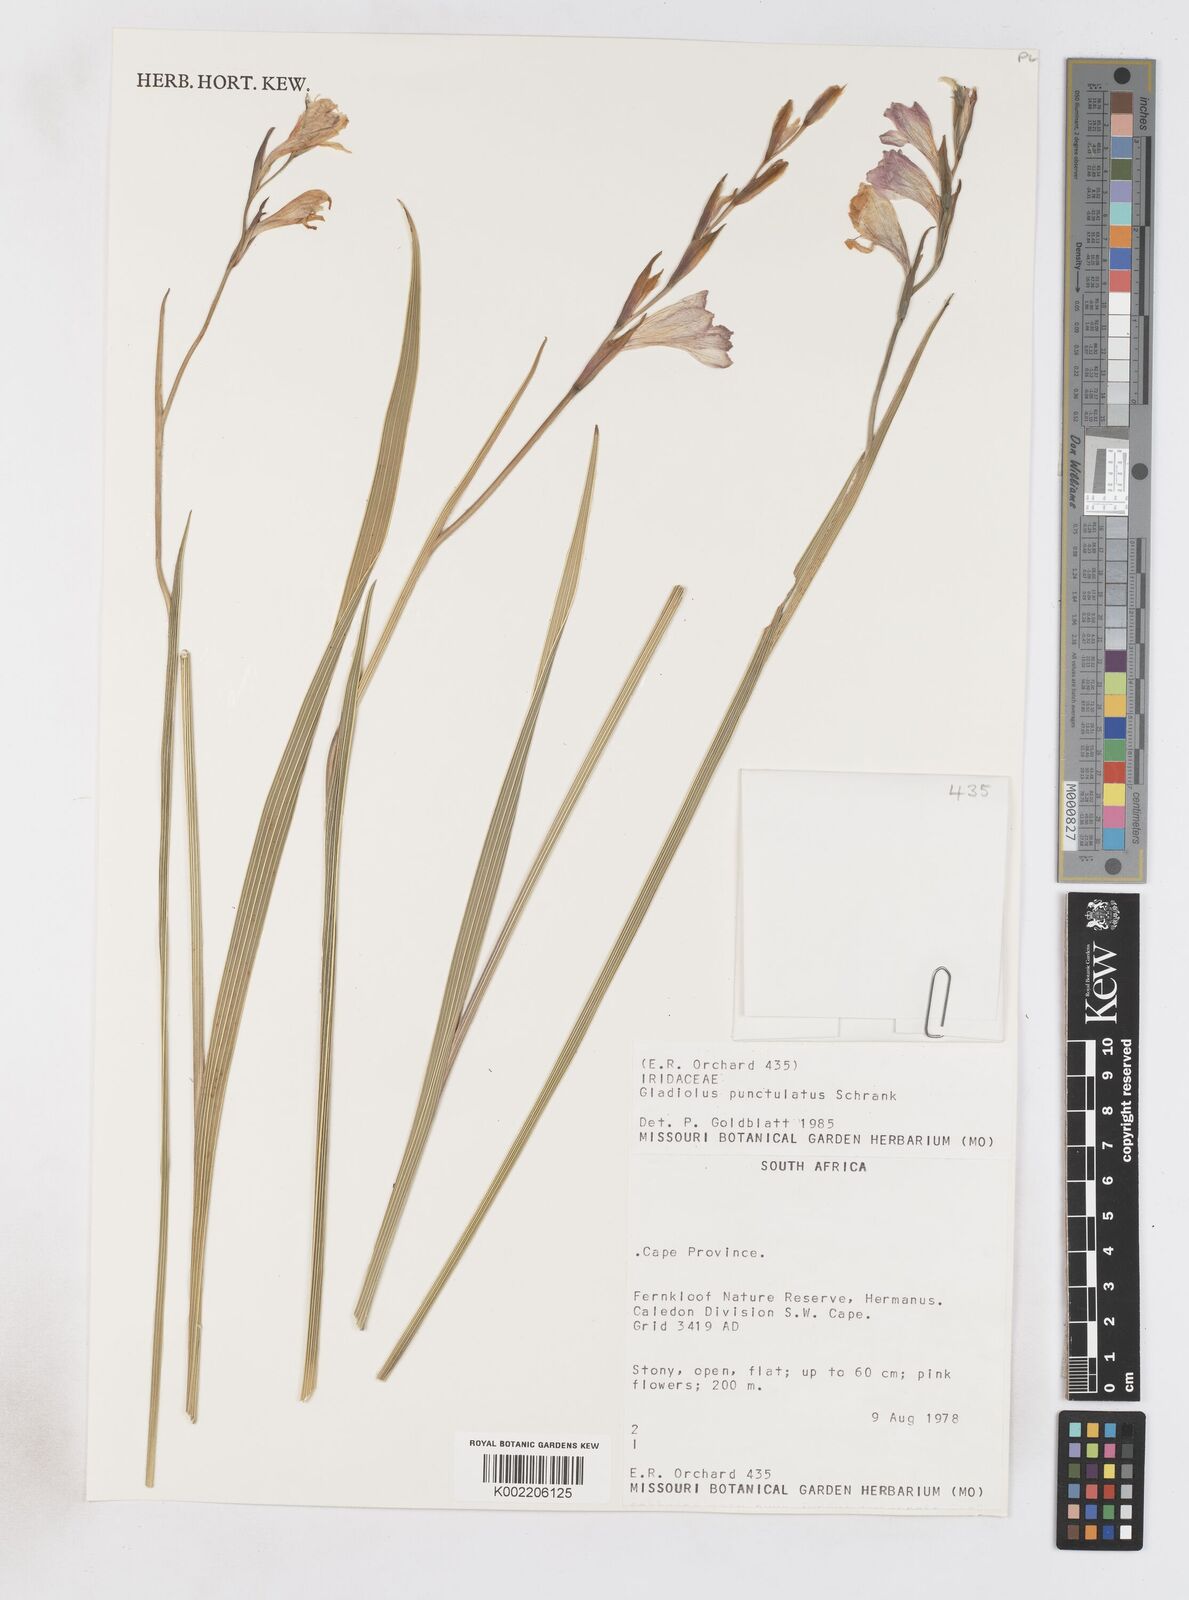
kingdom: Plantae
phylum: Tracheophyta
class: Liliopsida
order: Asparagales
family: Iridaceae
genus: Gladiolus
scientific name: Gladiolus hirsutus
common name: Small pink afrikaner
